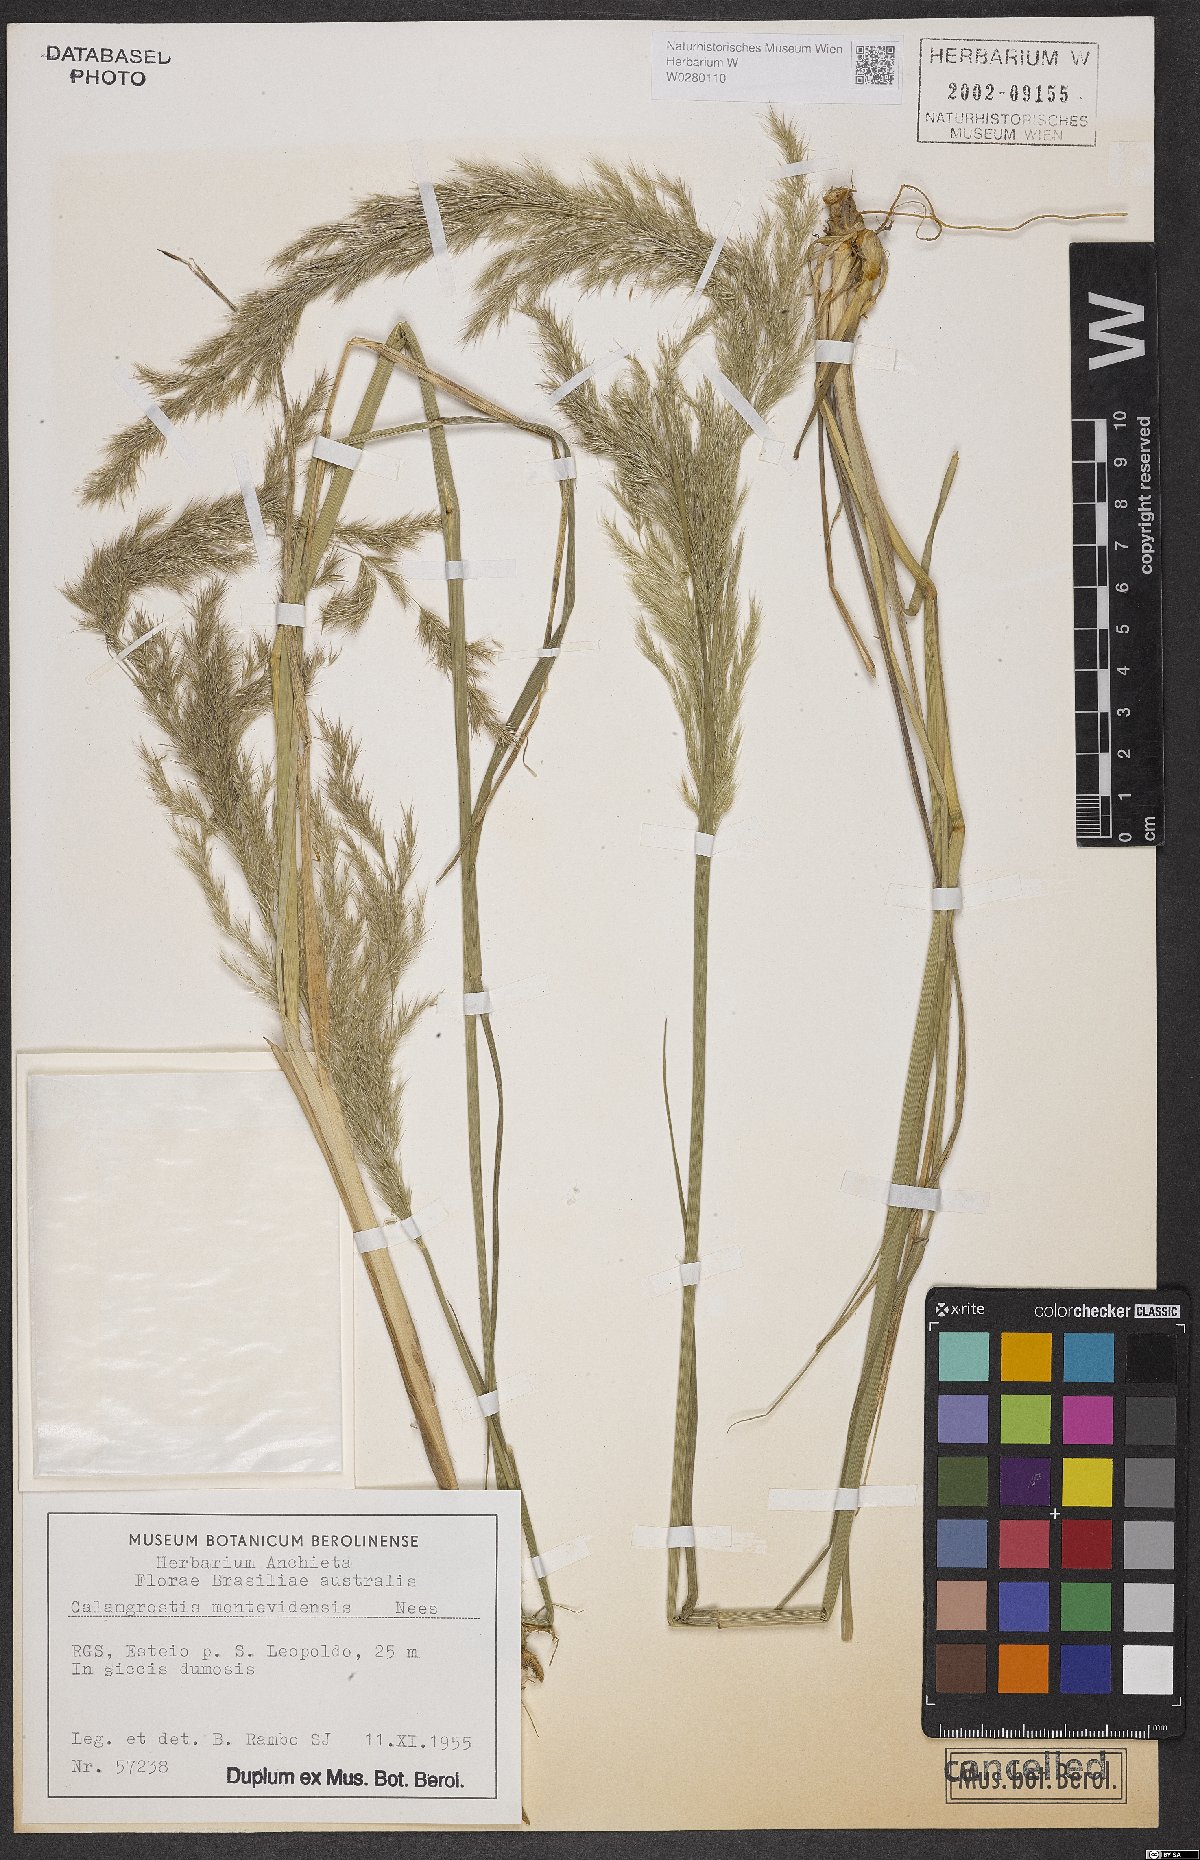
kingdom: Plantae
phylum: Tracheophyta
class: Liliopsida
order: Poales
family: Poaceae
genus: Cinnagrostis
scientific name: Cinnagrostis viridiflavescens
